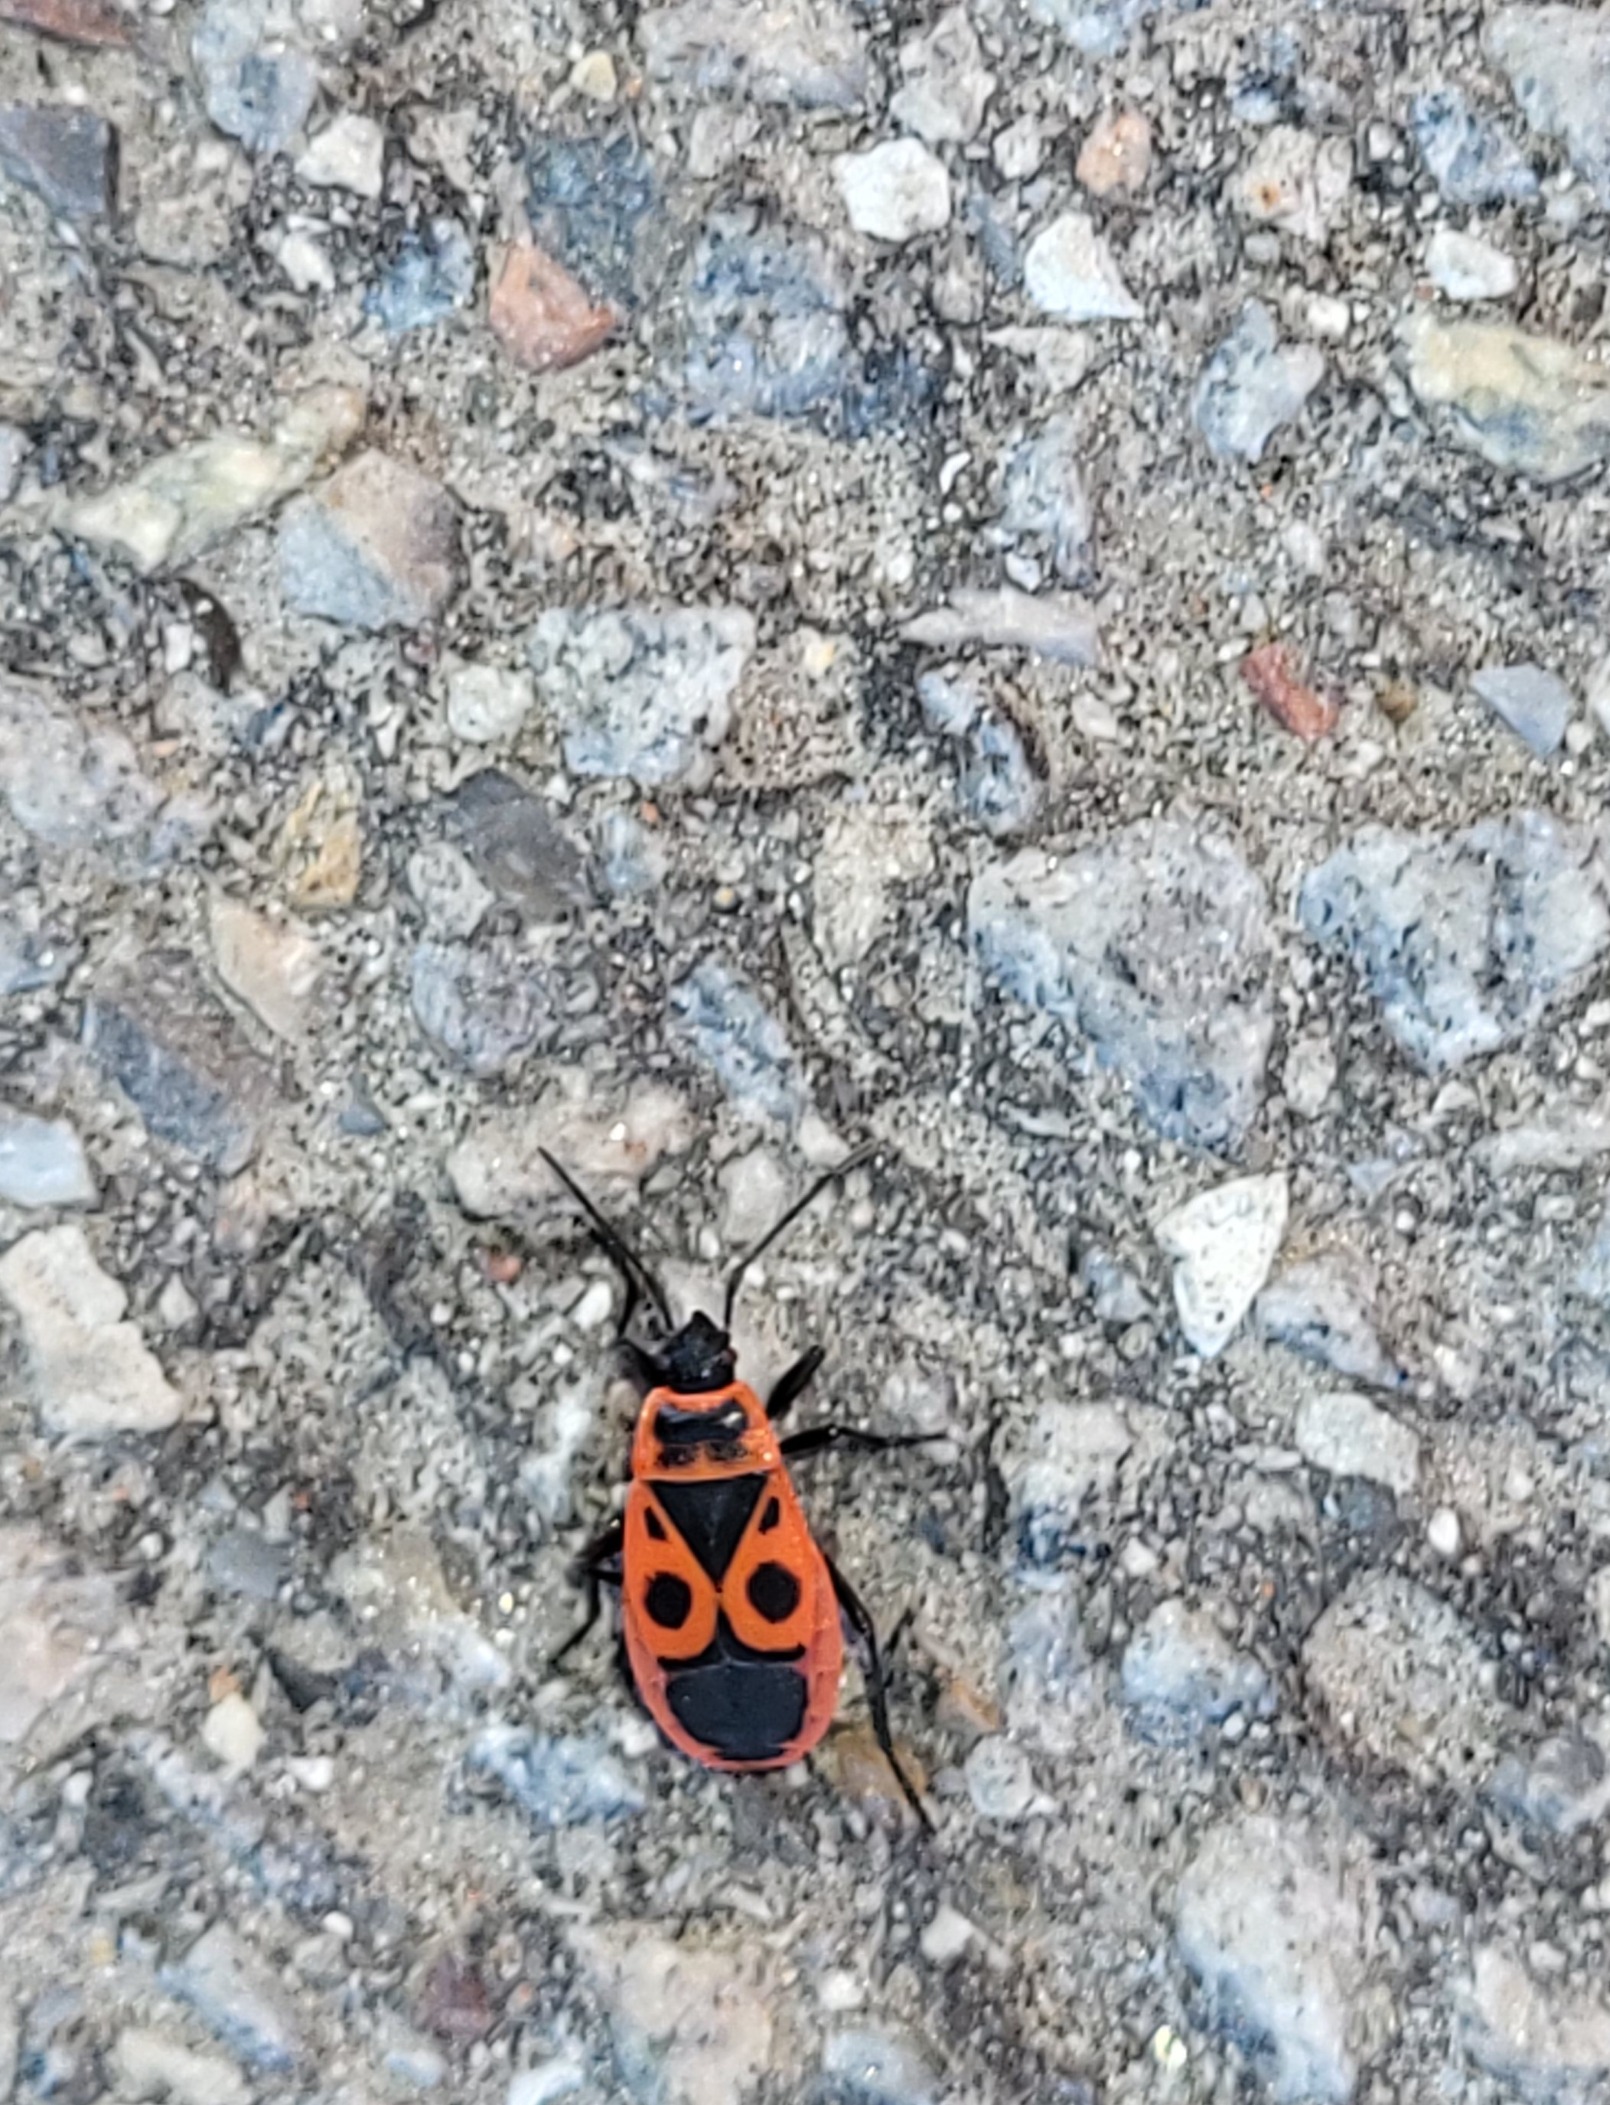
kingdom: Animalia
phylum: Arthropoda
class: Insecta
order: Hemiptera
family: Pyrrhocoridae
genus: Pyrrhocoris
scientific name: Pyrrhocoris apterus
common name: Ildtæge
